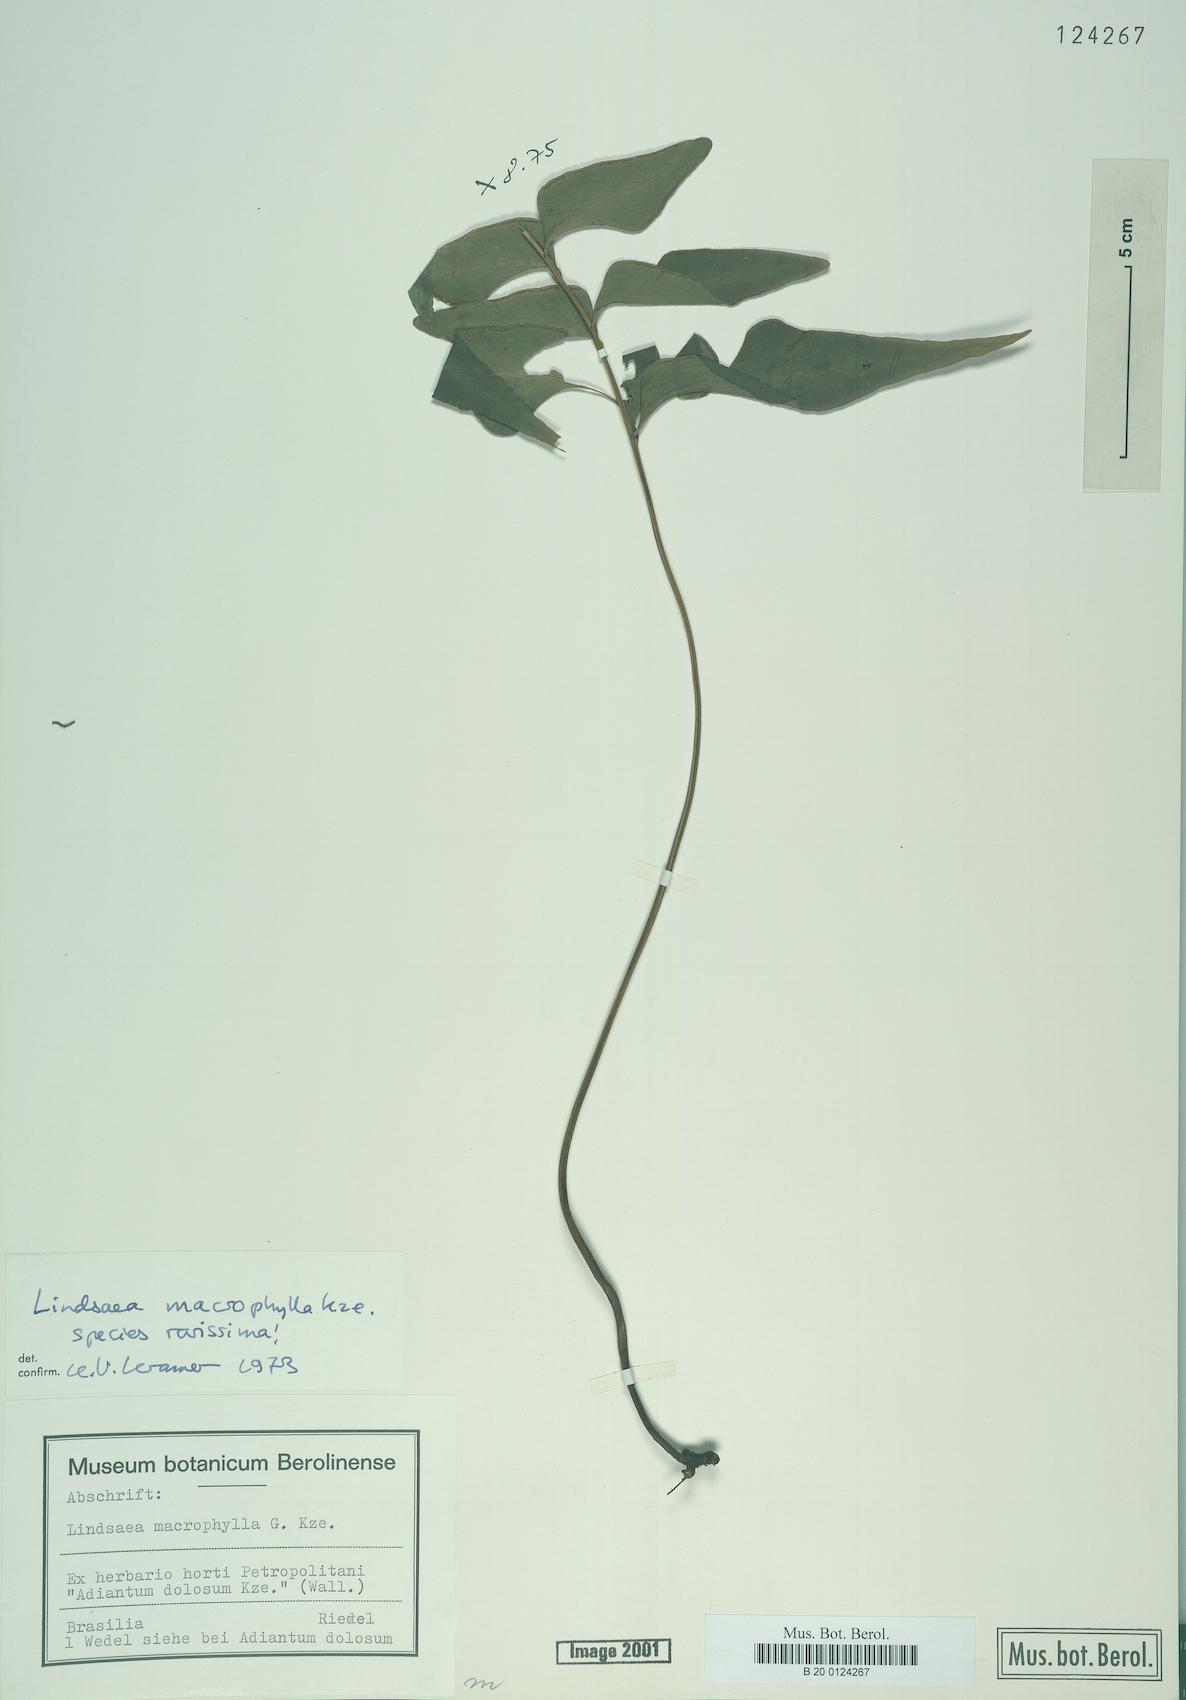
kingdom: Plantae
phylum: Tracheophyta
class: Polypodiopsida
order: Polypodiales
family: Lindsaeaceae
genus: Lindsaea
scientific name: Lindsaea macrophylla
